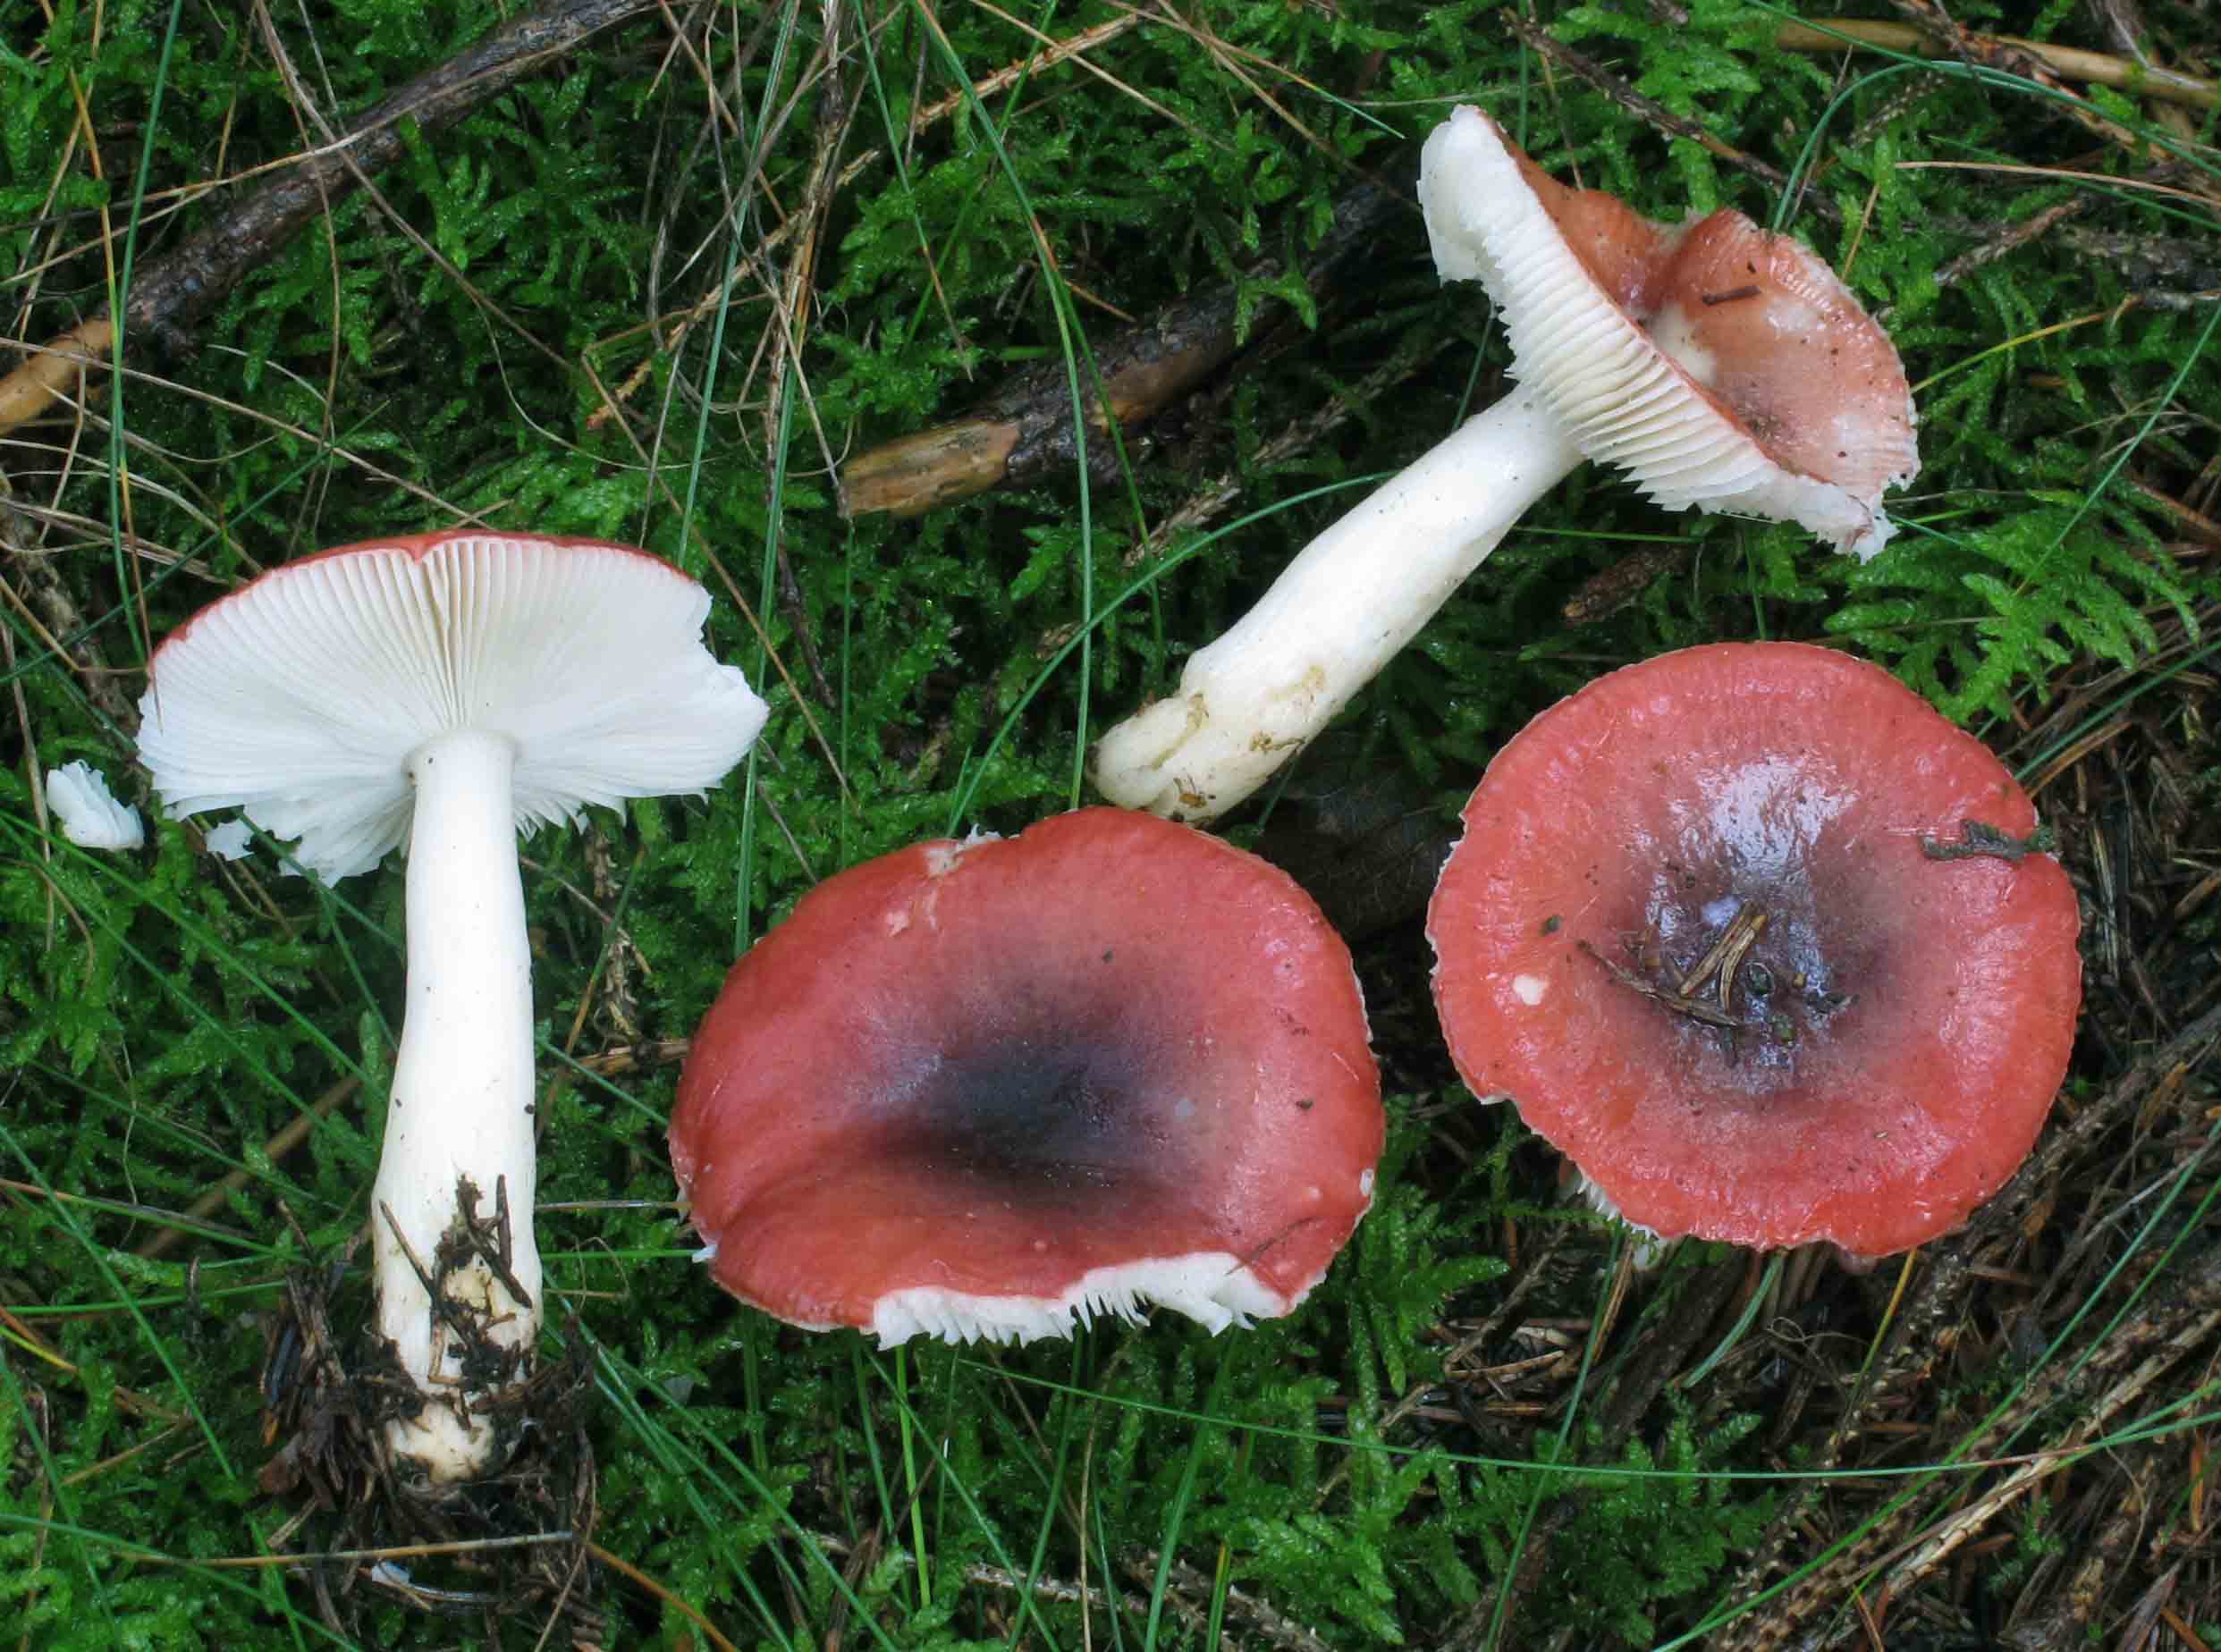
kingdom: Fungi
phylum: Basidiomycota
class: Agaricomycetes
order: Russulales
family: Russulaceae
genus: Russula
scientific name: Russula atrorubens
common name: sortrød skørhat
